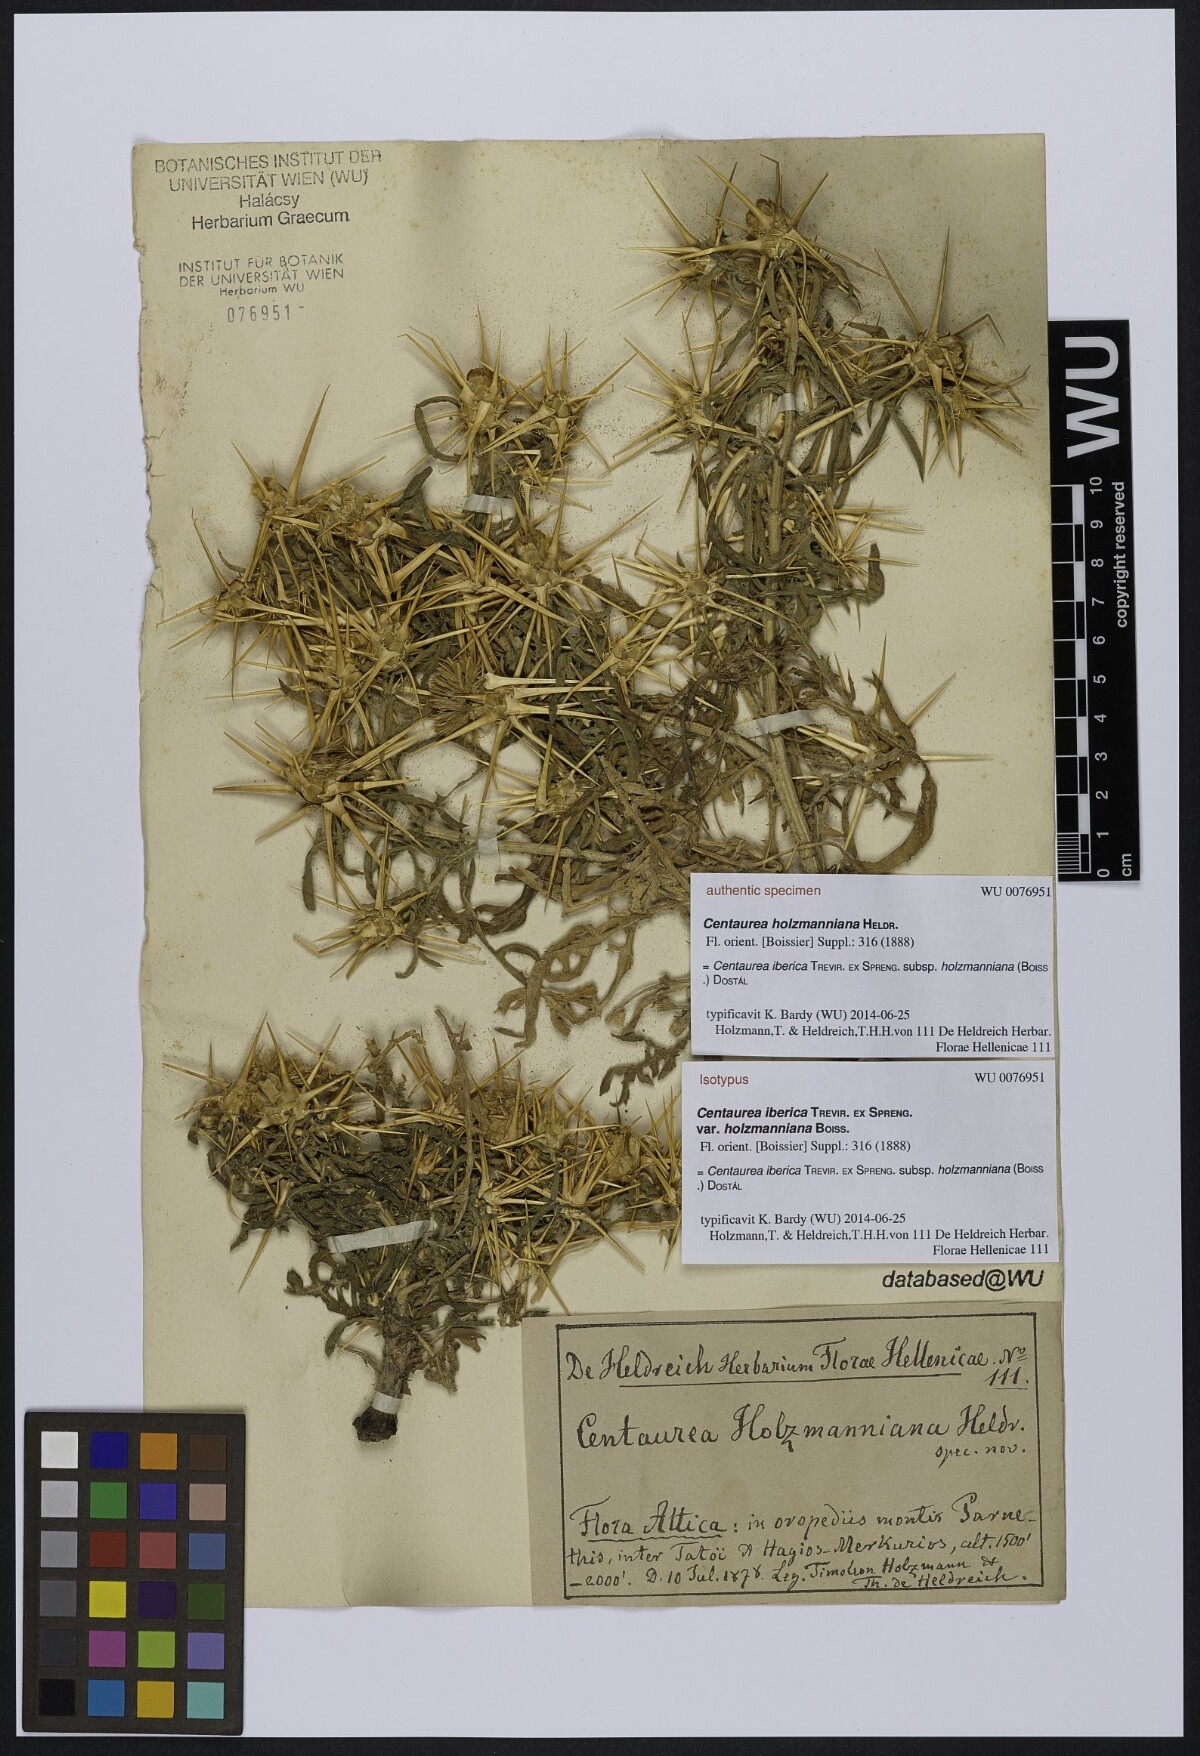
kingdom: Plantae
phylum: Tracheophyta
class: Magnoliopsida
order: Asterales
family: Asteraceae
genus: Centaurea
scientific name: Centaurea iberica
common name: Iberian knapweed
